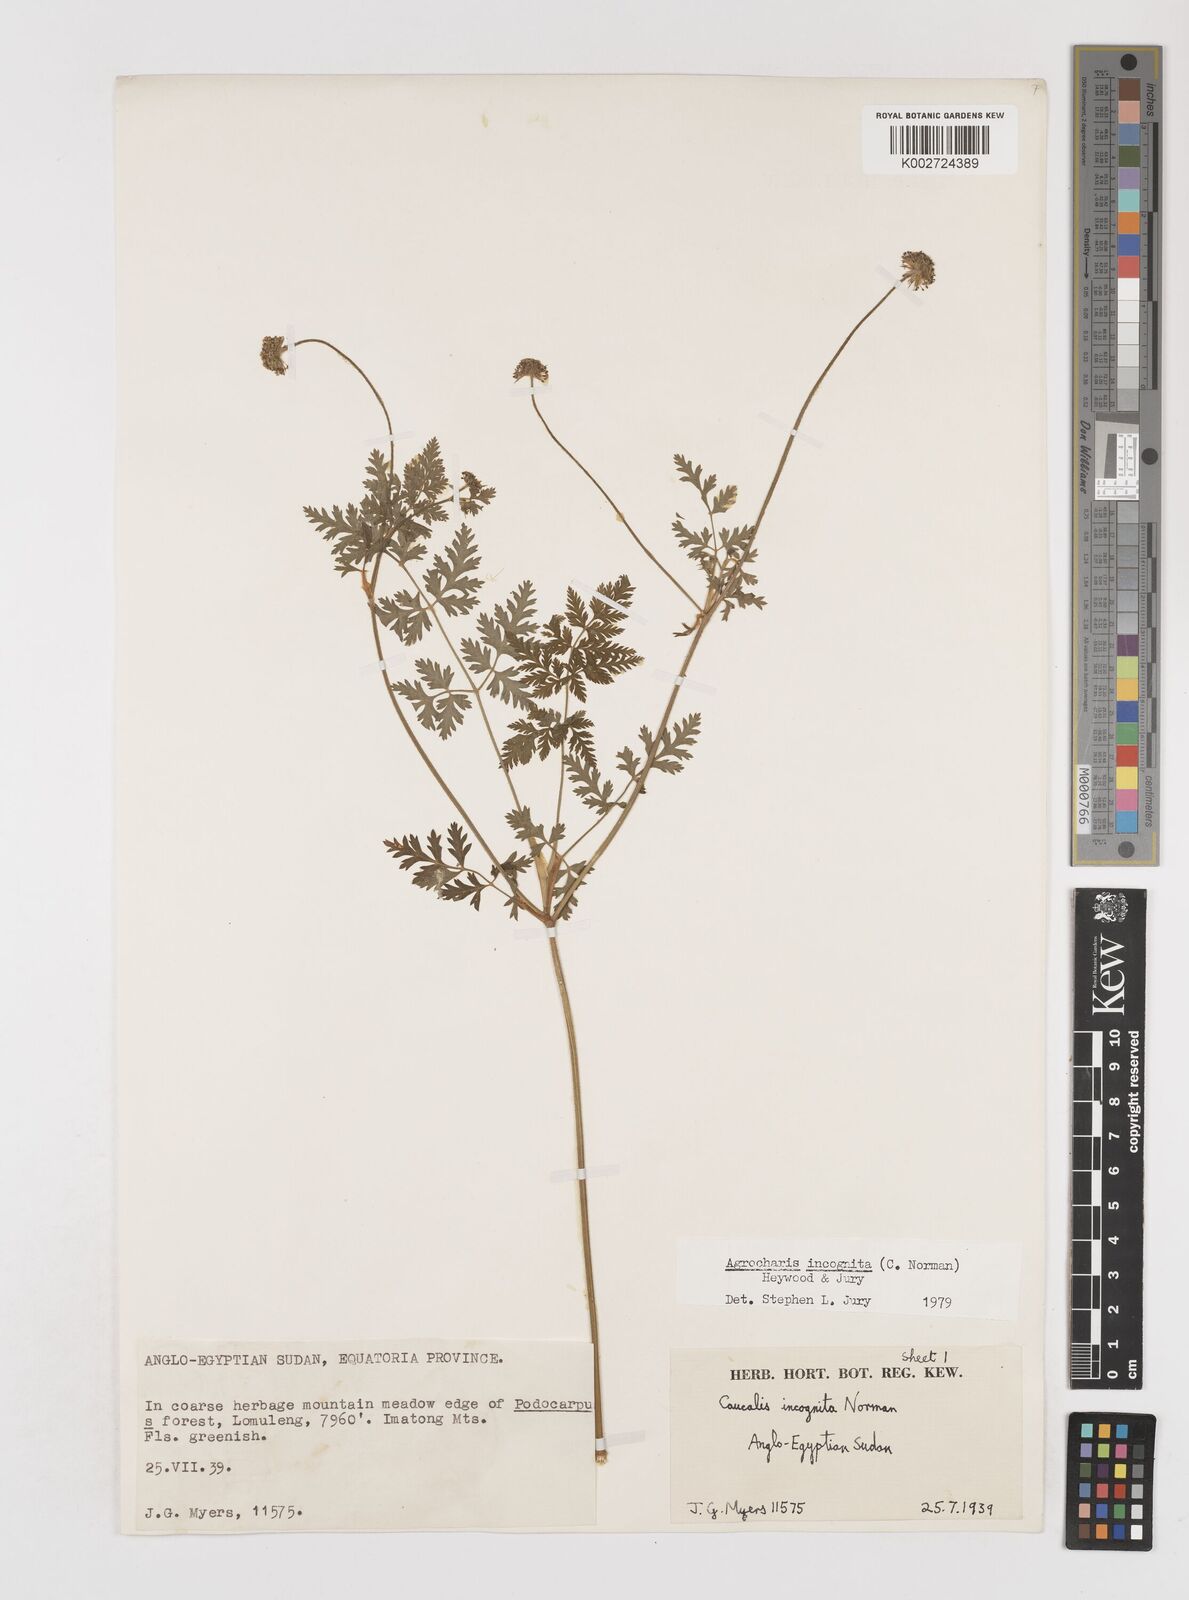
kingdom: Plantae
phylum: Tracheophyta
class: Magnoliopsida
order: Apiales
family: Apiaceae
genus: Daucus
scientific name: Daucus incognitus
